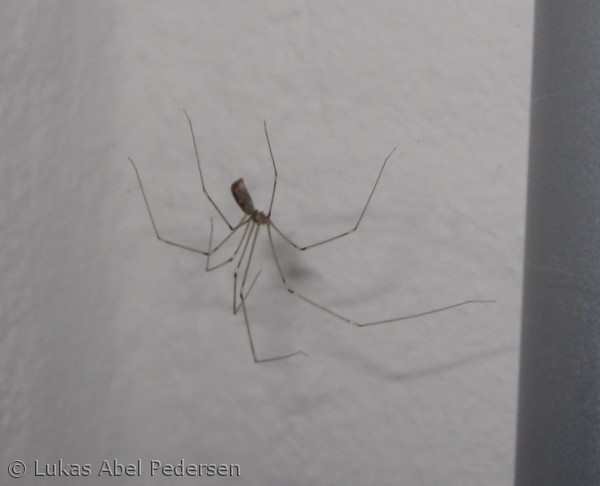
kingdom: Animalia
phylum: Arthropoda
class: Arachnida
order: Araneae
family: Pholcidae
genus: Pholcus
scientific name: Pholcus phalangioides
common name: Mejeredderkop
